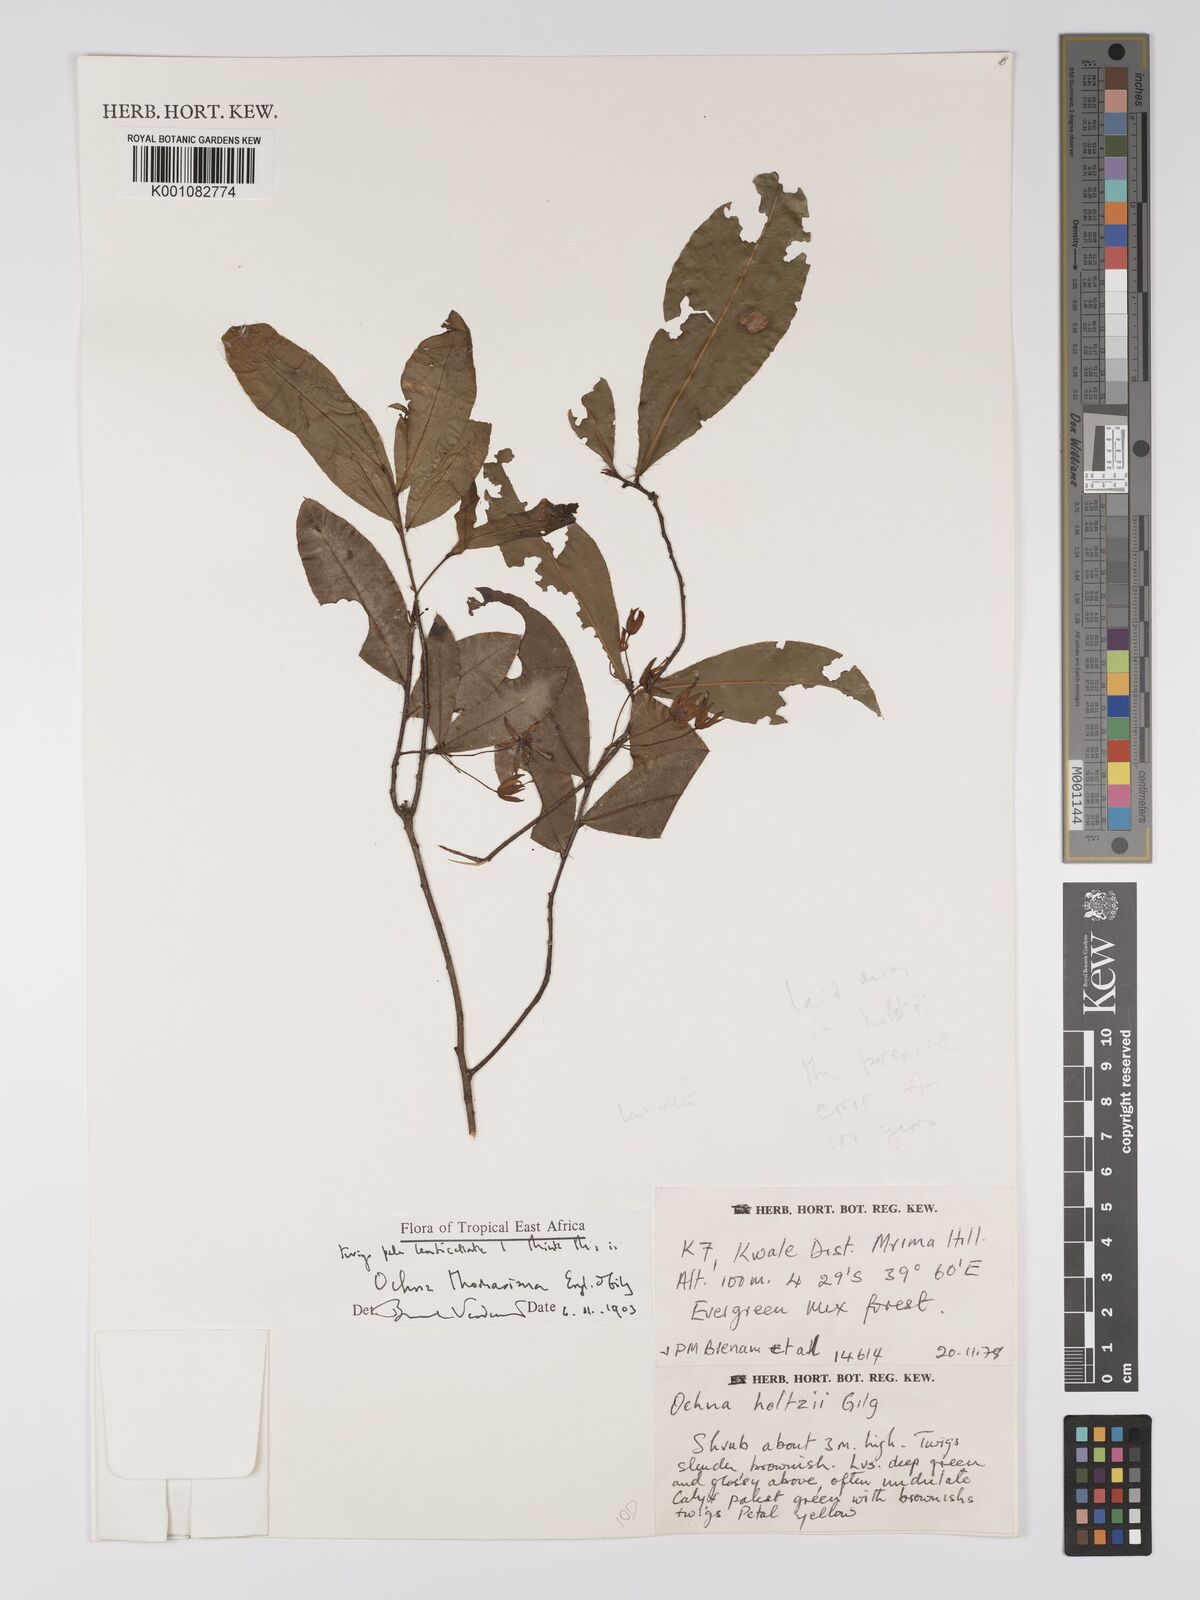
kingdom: Plantae
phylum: Tracheophyta
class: Magnoliopsida
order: Malpighiales
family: Ochnaceae
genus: Ochna
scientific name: Ochna thomasiana
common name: Thomas' bird's-eye bush
